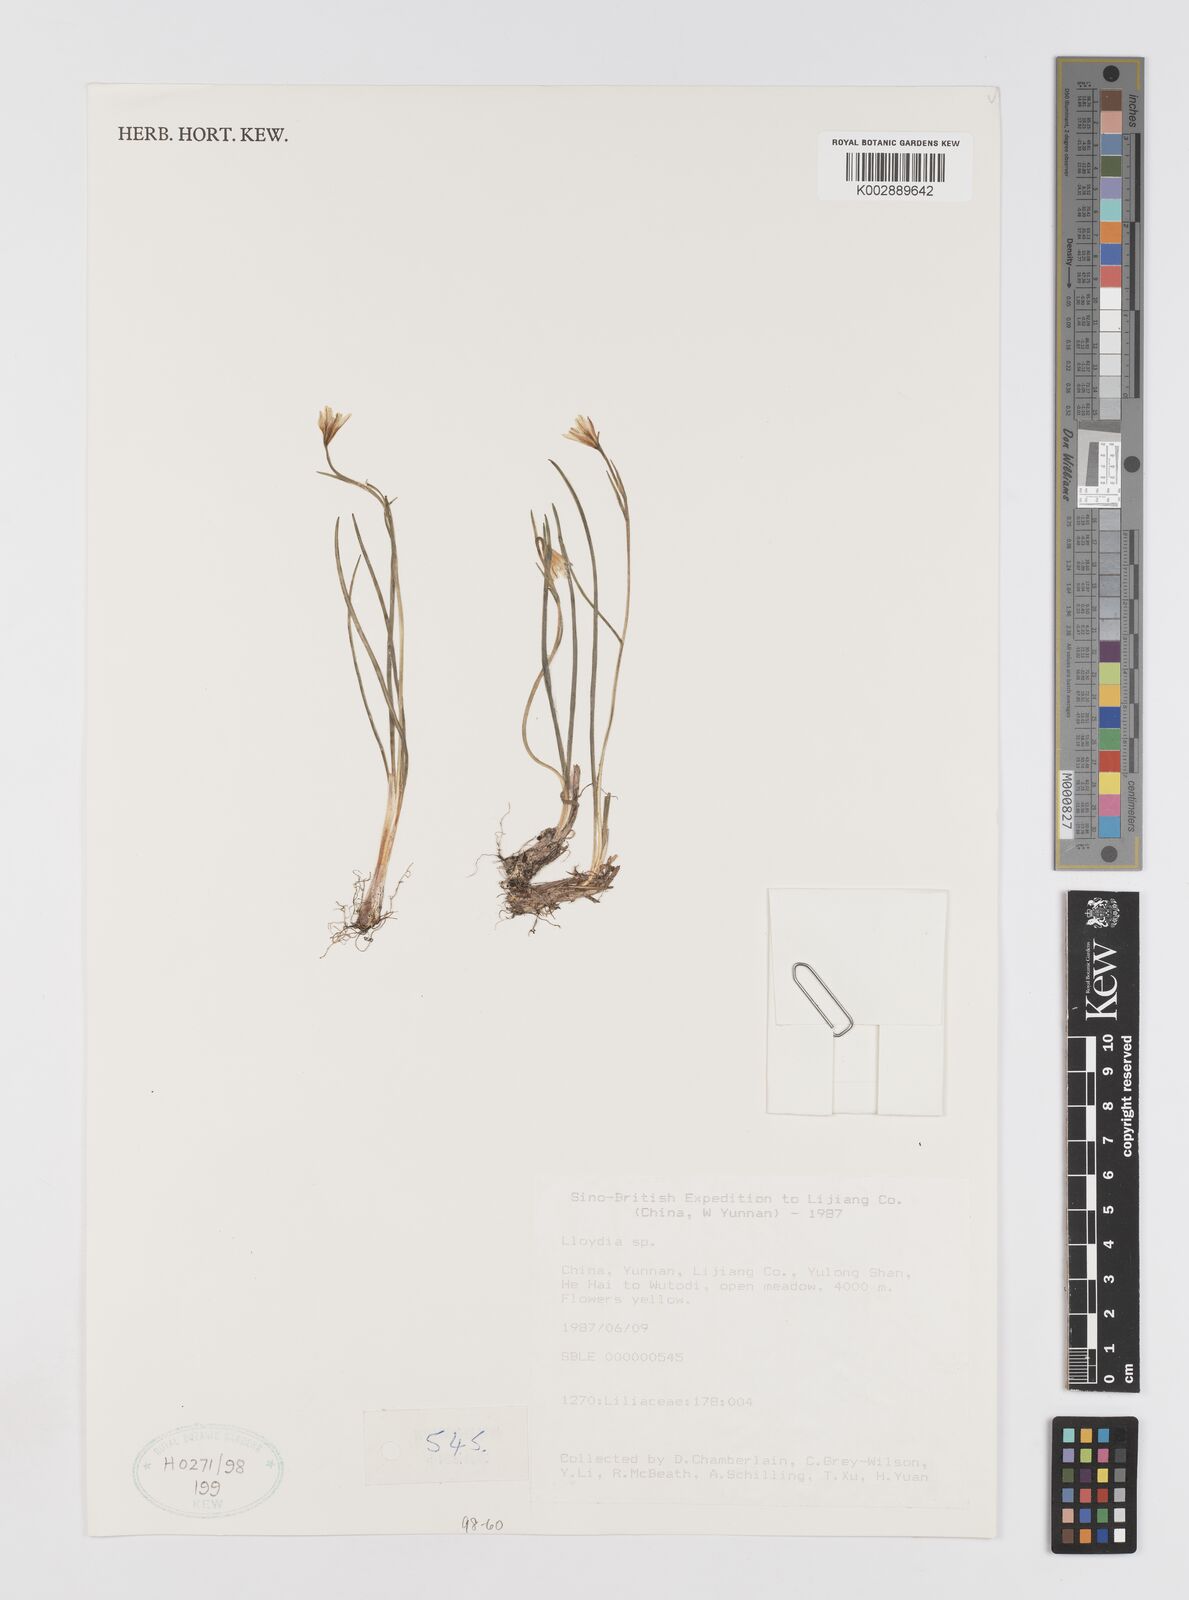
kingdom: Plantae
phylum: Tracheophyta
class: Liliopsida
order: Liliales
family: Liliaceae
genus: Gagea
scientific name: Gagea
